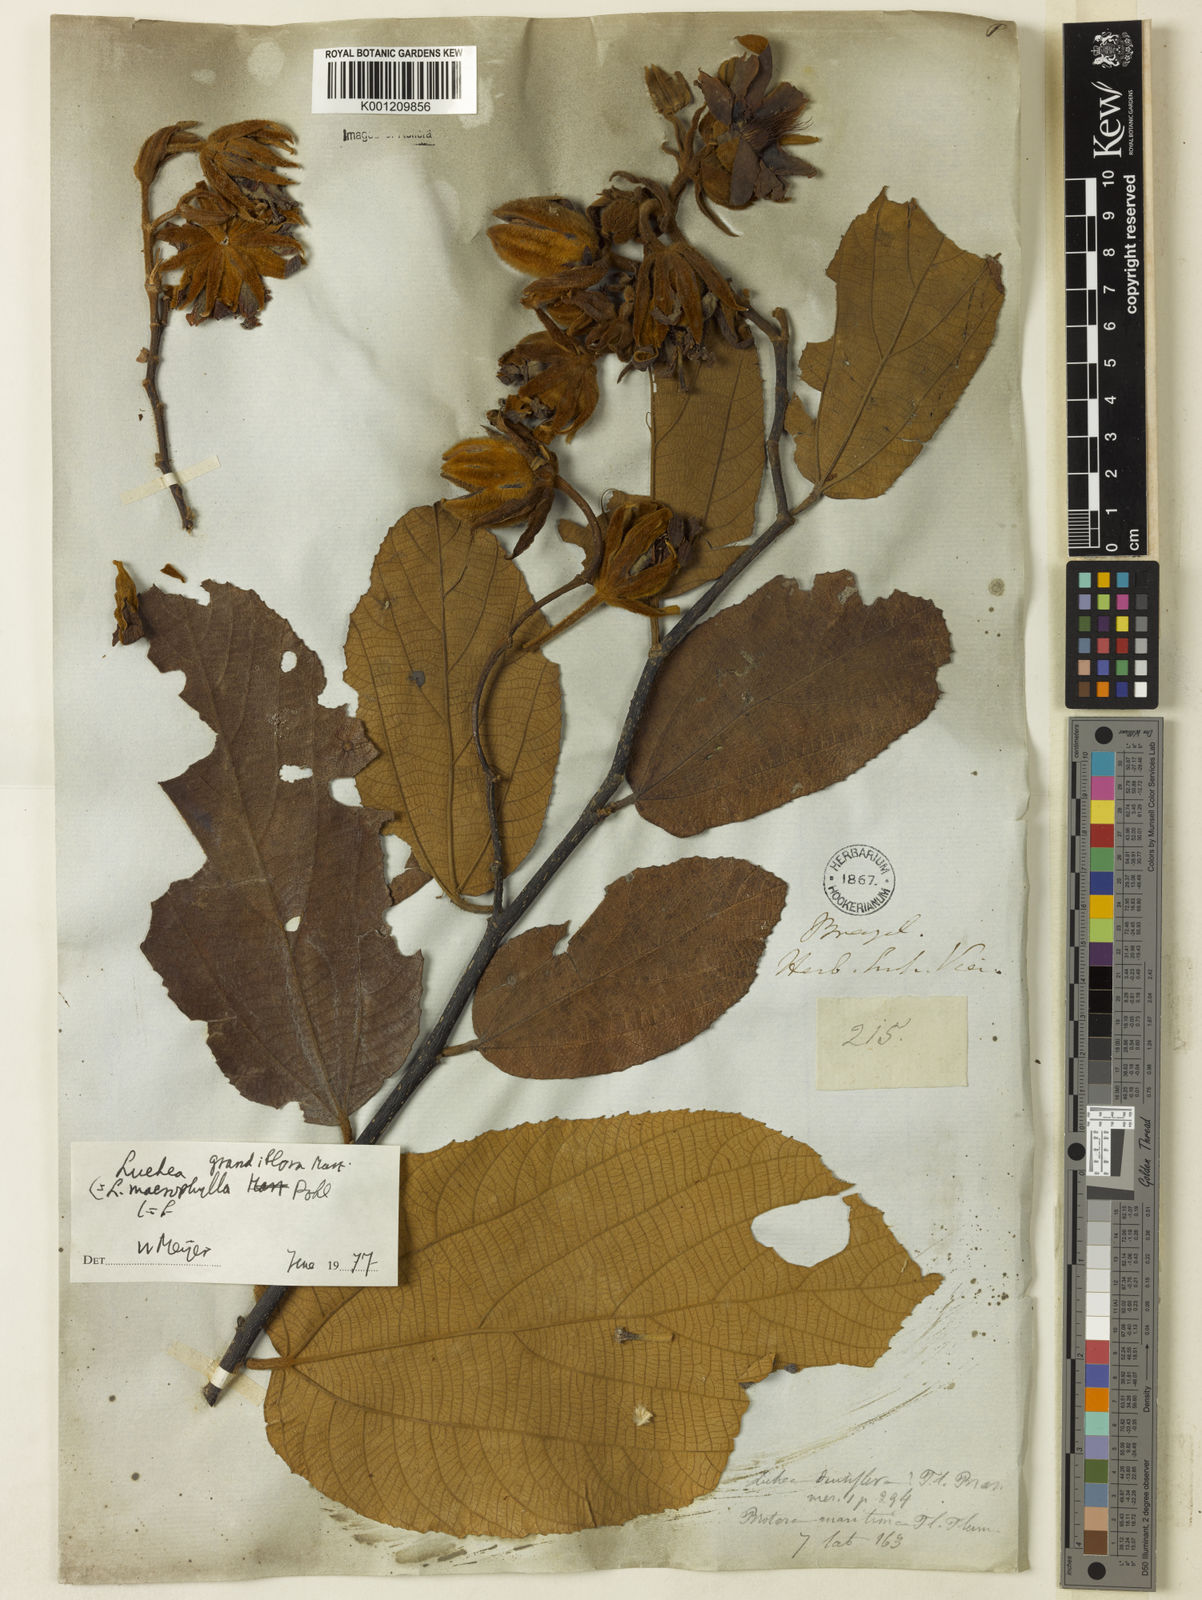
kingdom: Plantae
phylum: Tracheophyta
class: Magnoliopsida
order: Malvales
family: Malvaceae
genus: Luehea
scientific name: Luehea grandiflora
